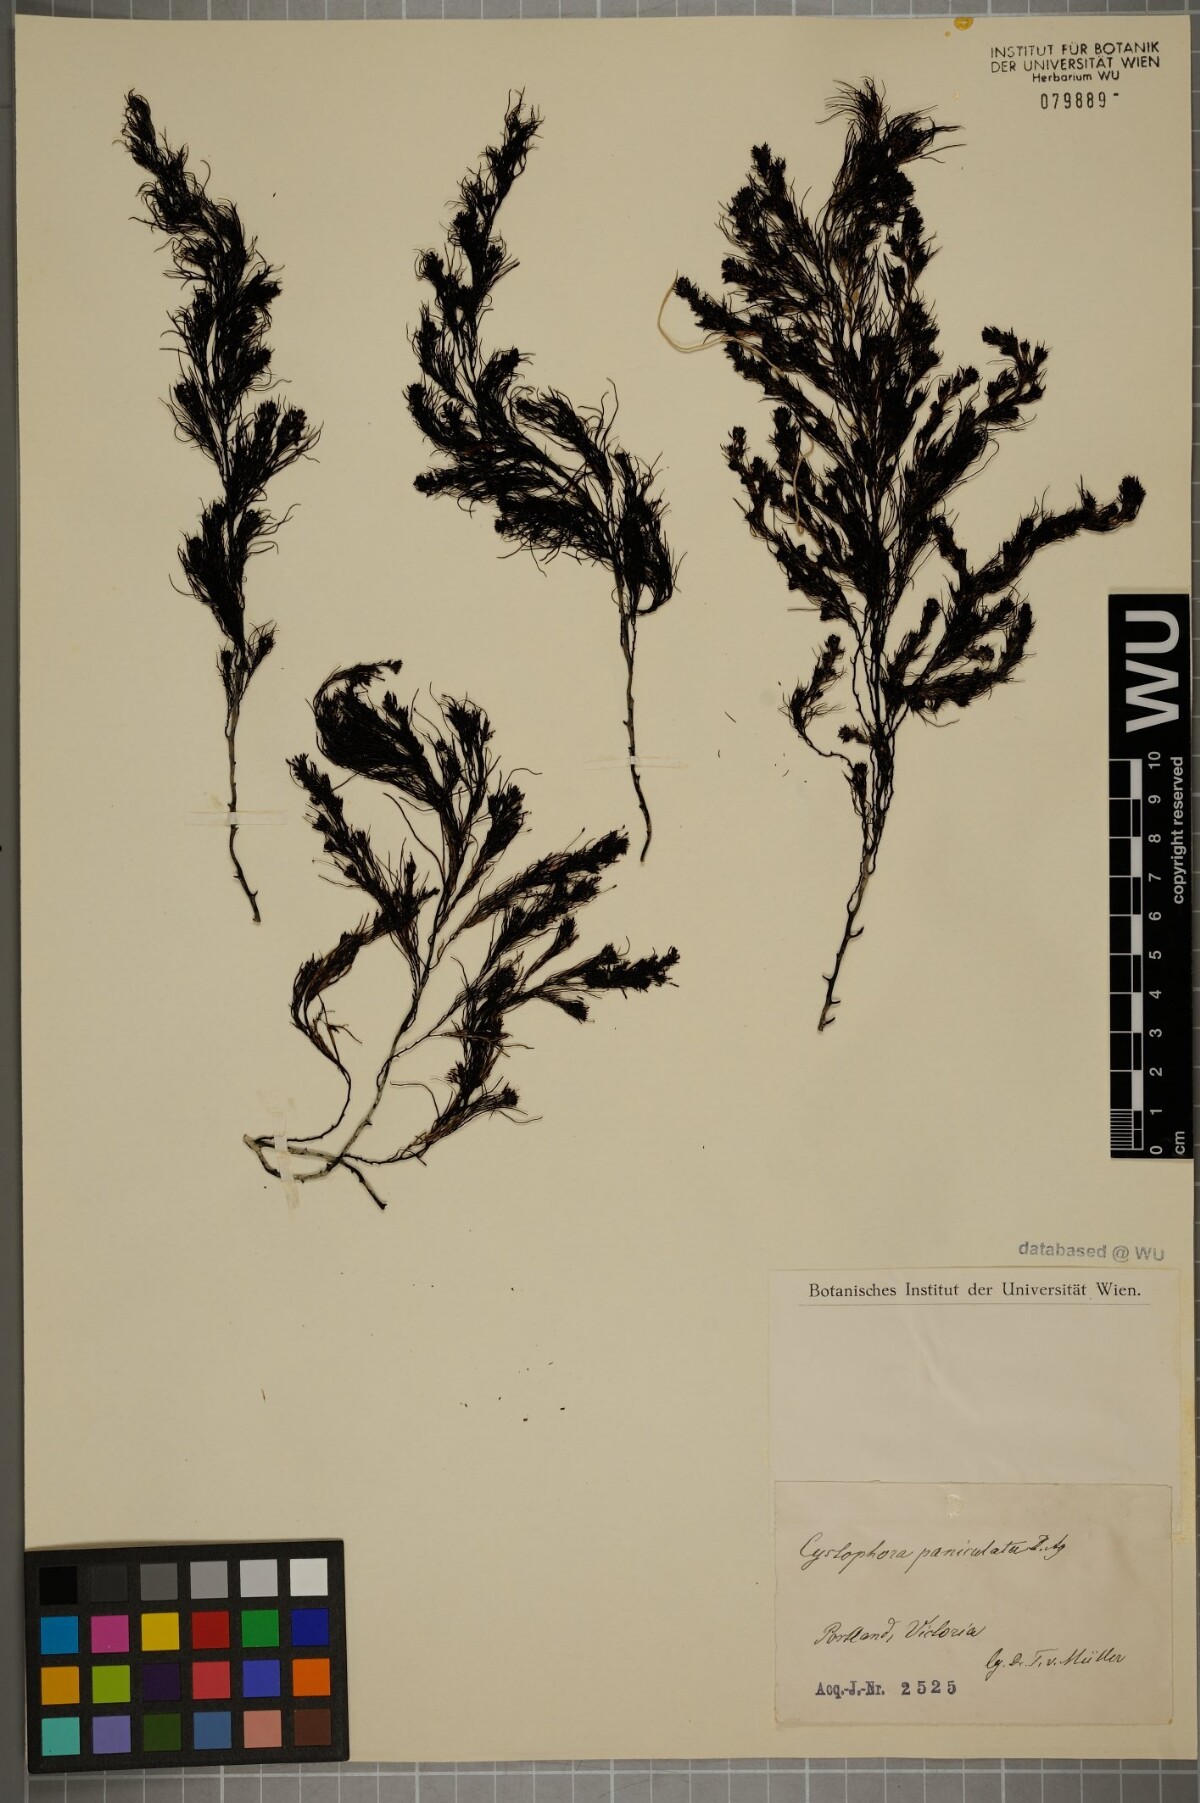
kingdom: Chromista
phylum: Ochrophyta
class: Phaeophyceae
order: Fucales
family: Sargassaceae
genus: Acrocarpia
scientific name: Acrocarpia paniculata
